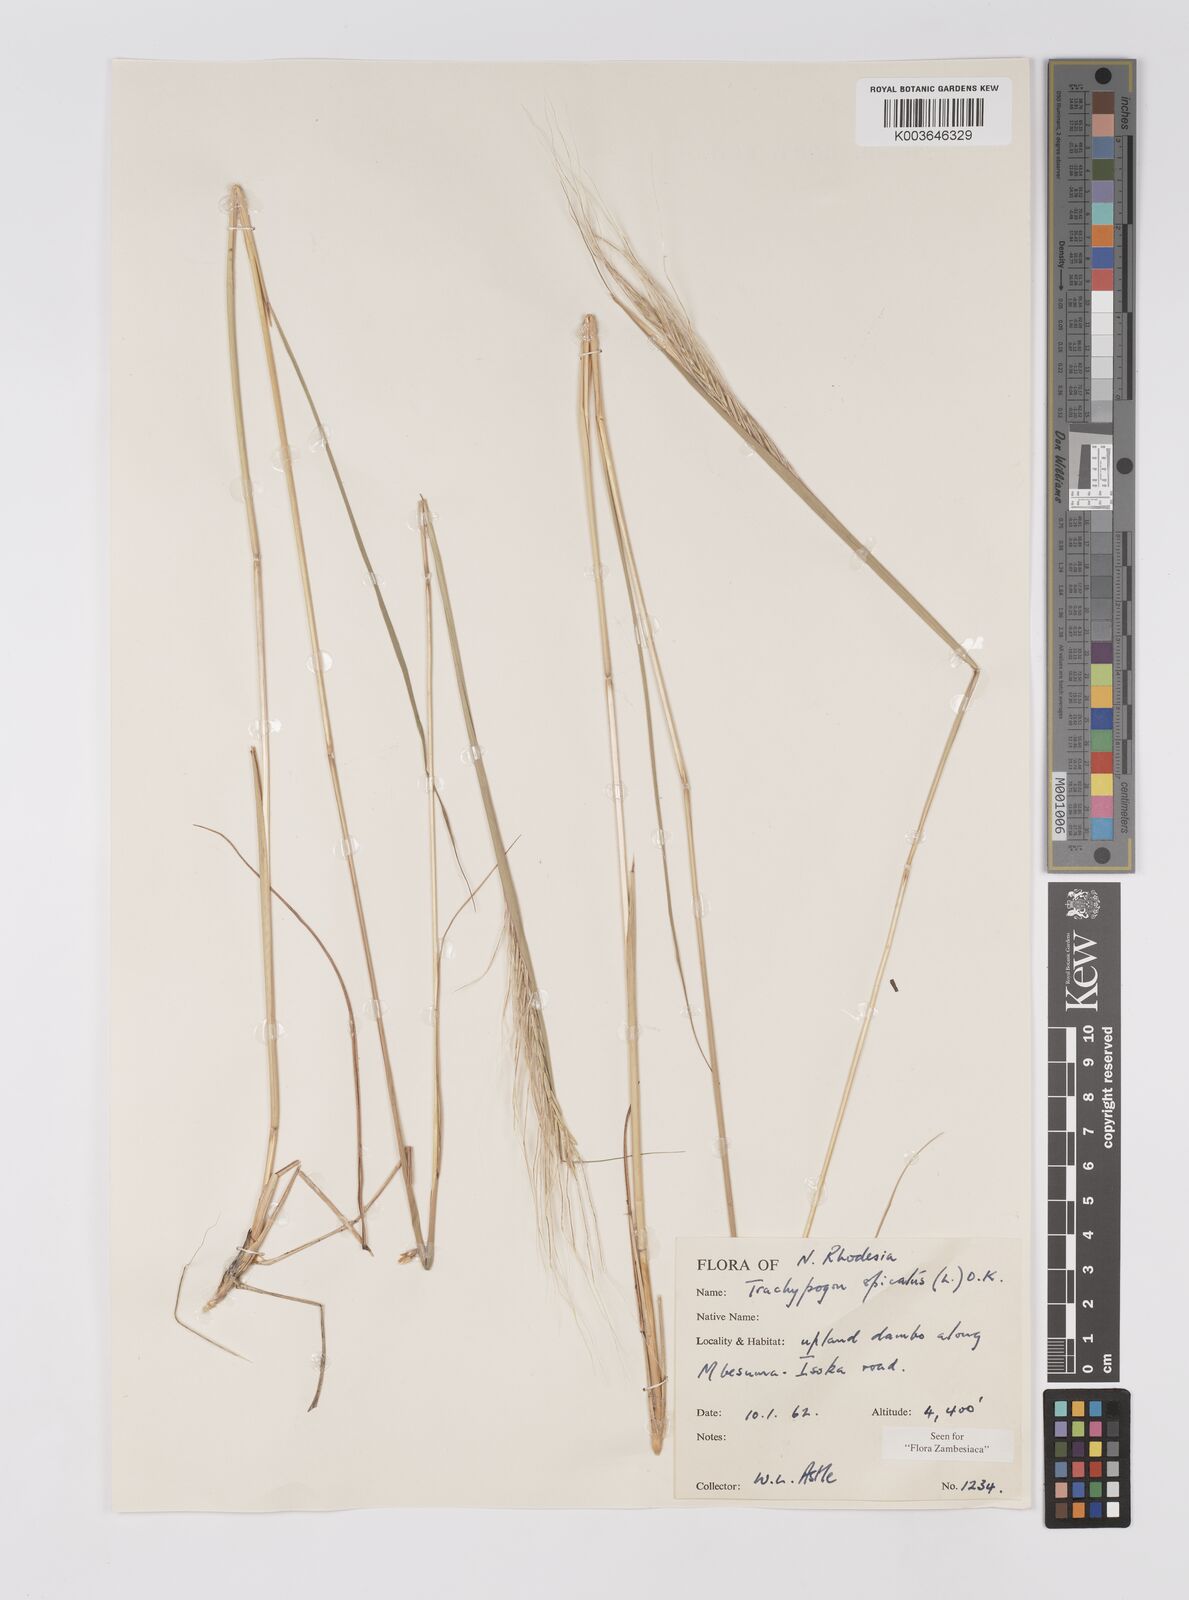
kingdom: Plantae
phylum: Tracheophyta
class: Liliopsida
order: Poales
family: Poaceae
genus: Trachypogon
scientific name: Trachypogon spicatus
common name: Crinkle-awn
